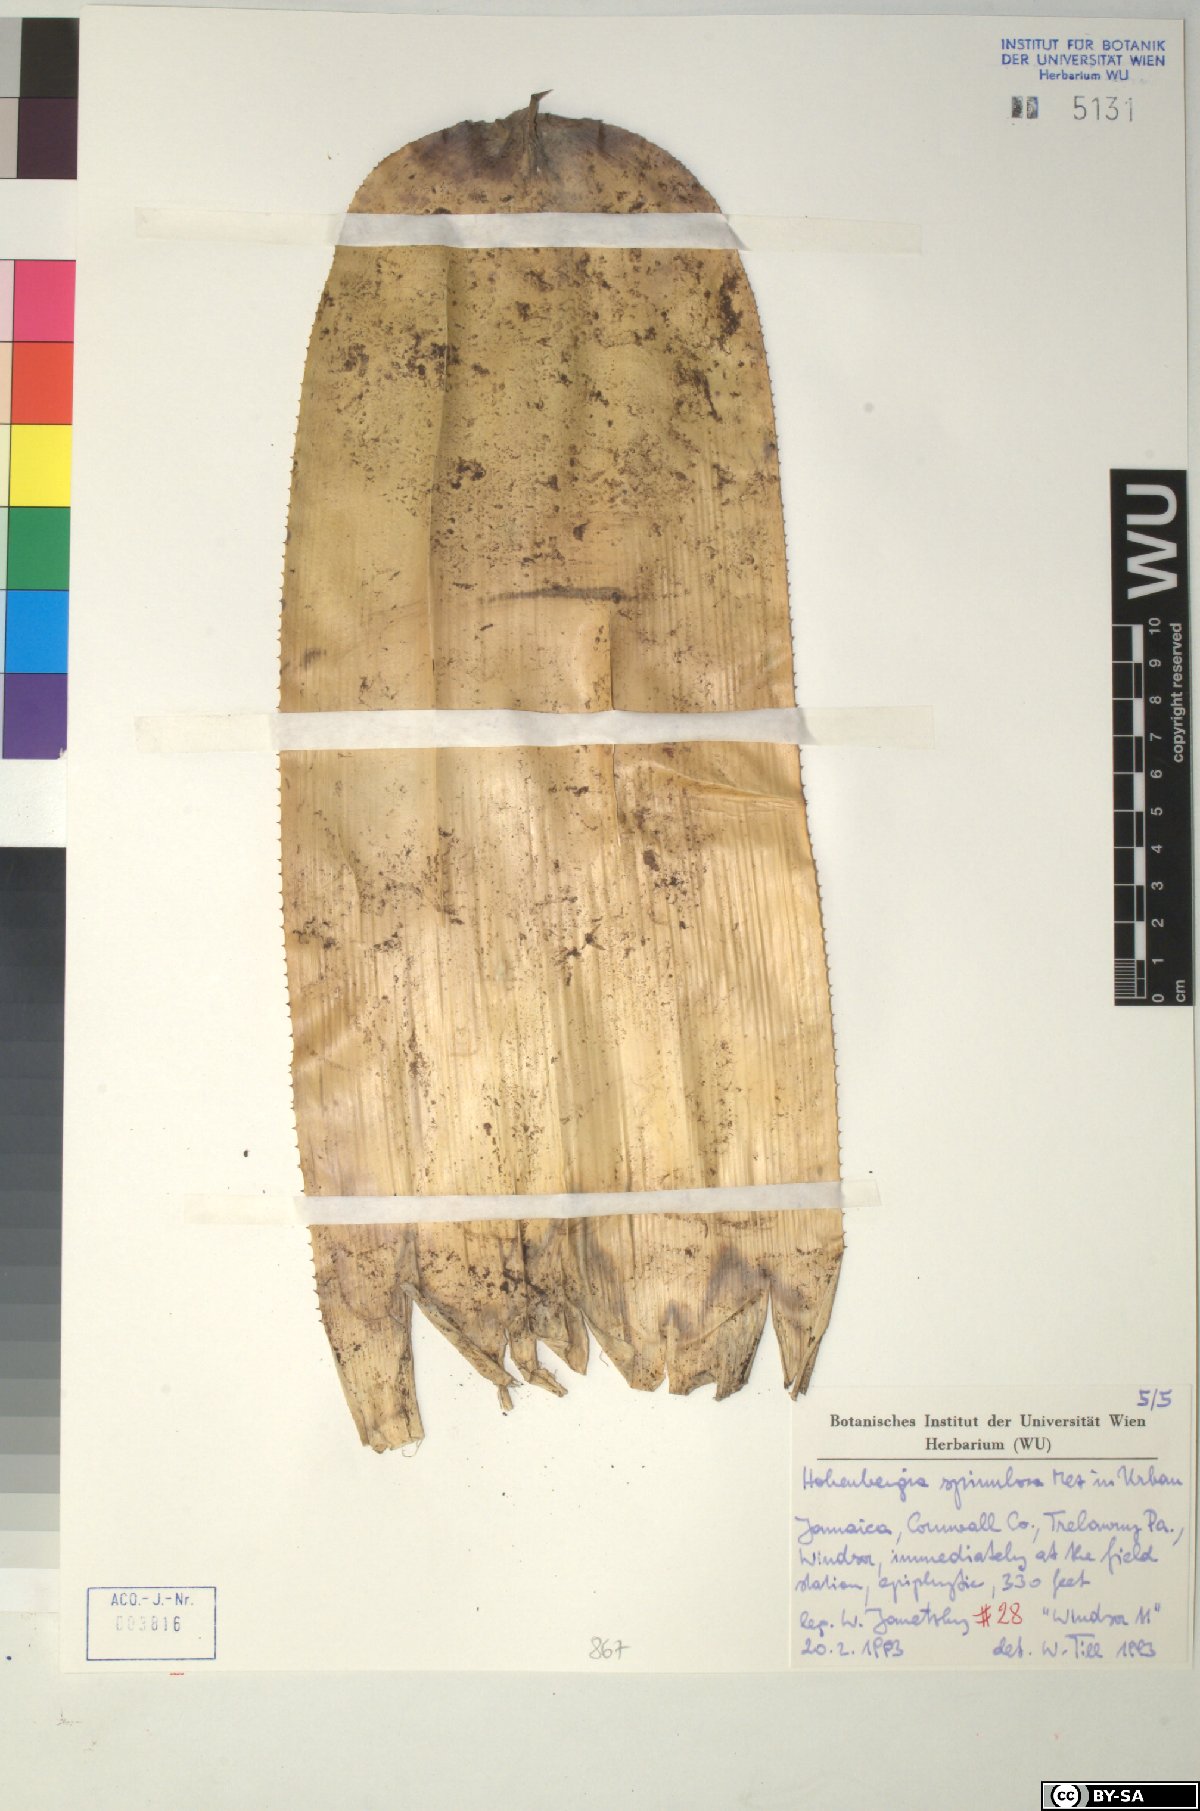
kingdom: Plantae
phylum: Tracheophyta
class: Liliopsida
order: Poales
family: Bromeliaceae
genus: Wittmackia
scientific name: Wittmackia spinulosa
